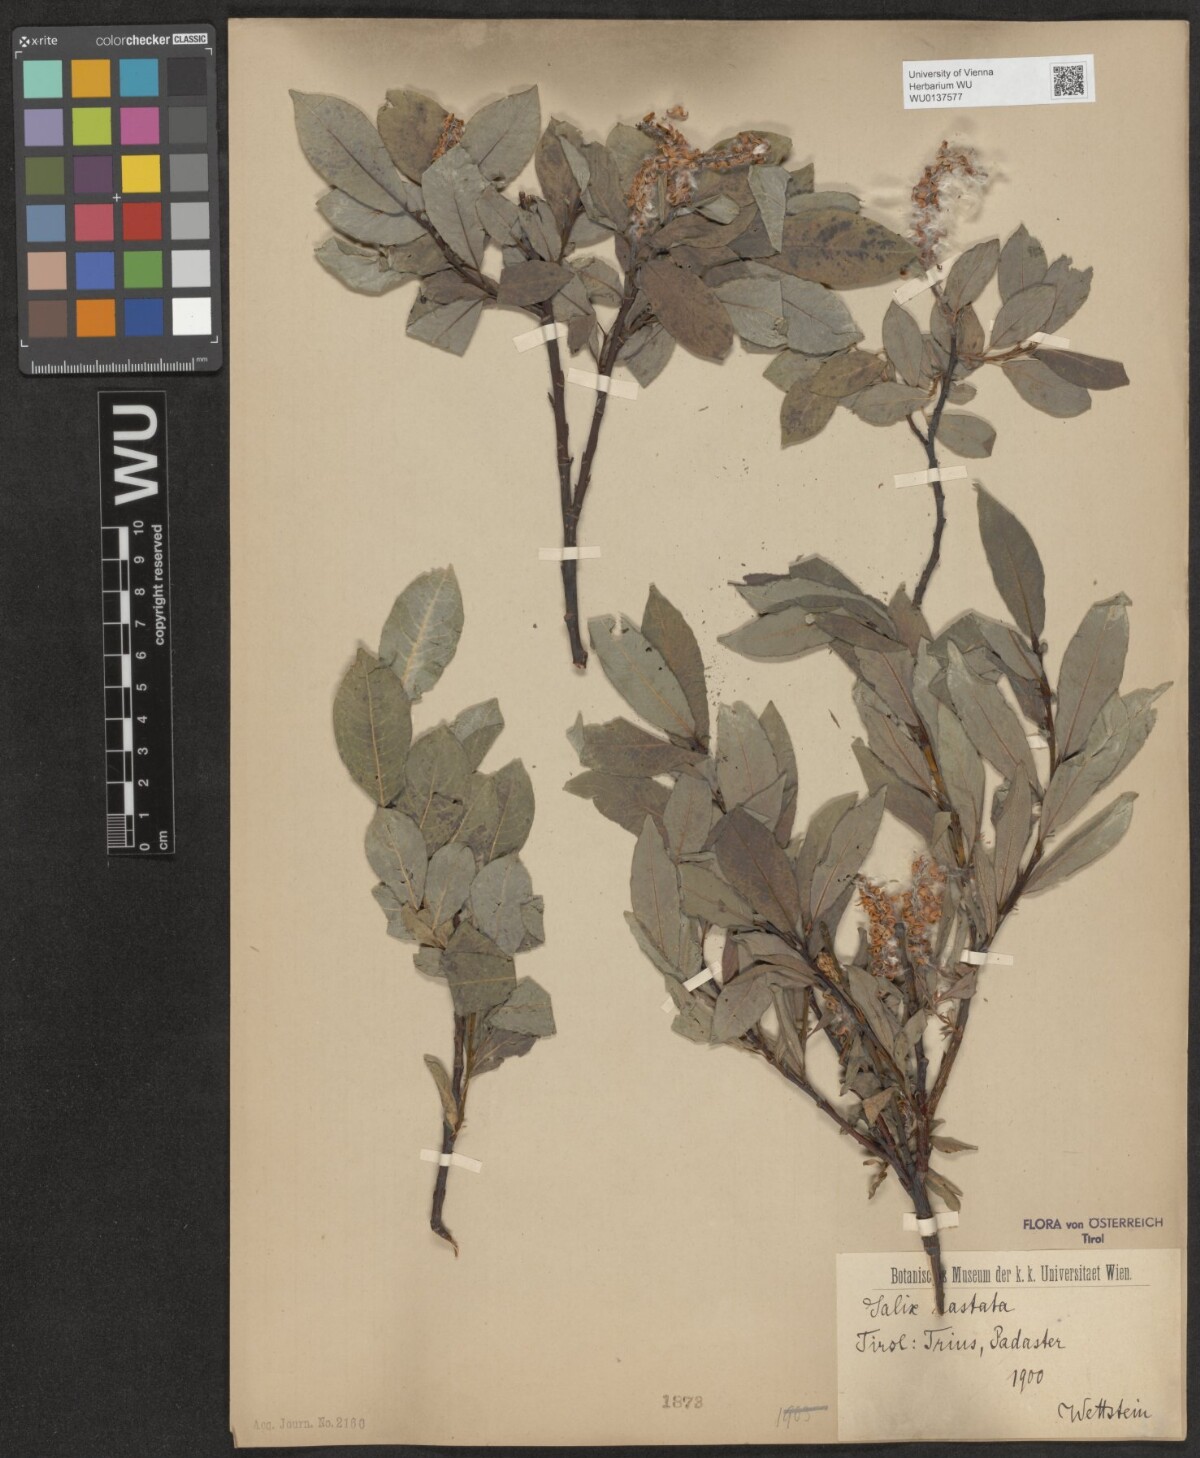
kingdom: Plantae
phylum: Tracheophyta
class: Magnoliopsida
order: Malpighiales
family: Salicaceae
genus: Salix
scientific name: Salix hastata
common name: Halberd willow
